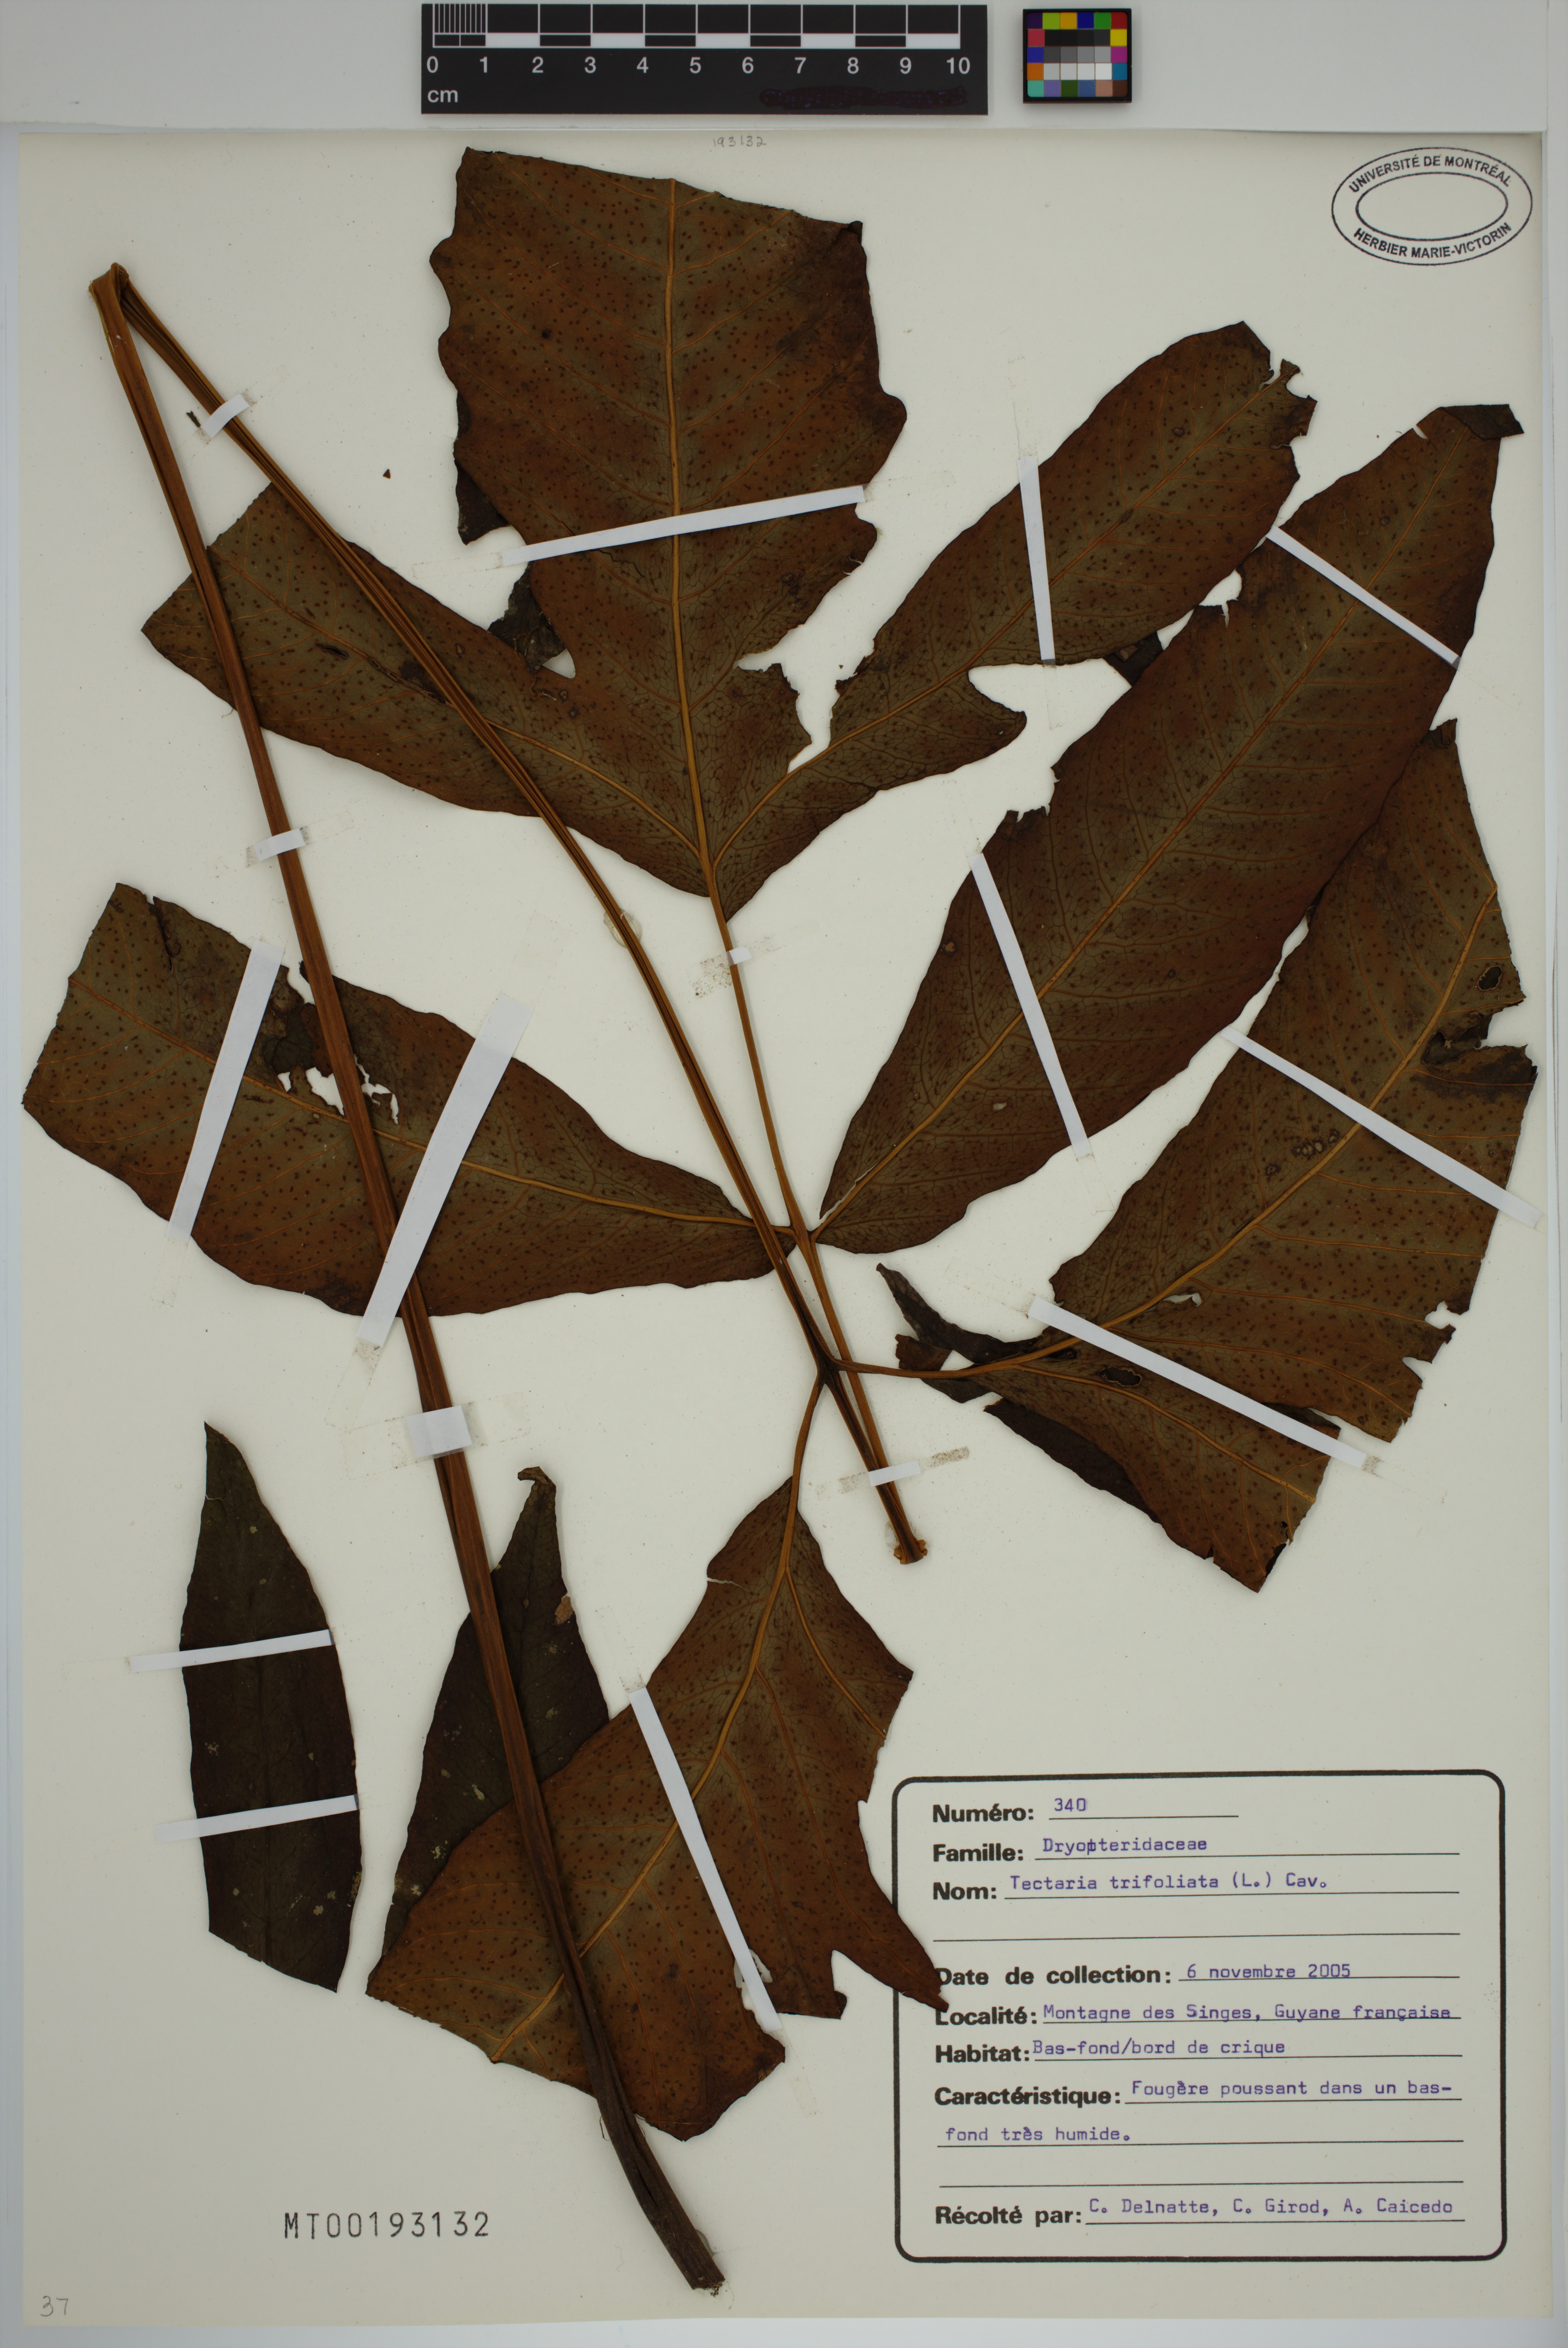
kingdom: Plantae
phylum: Tracheophyta
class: Polypodiopsida
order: Polypodiales
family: Tectariaceae
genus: Tectaria
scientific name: Tectaria trifoliata
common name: Threeleaf halberd fern
